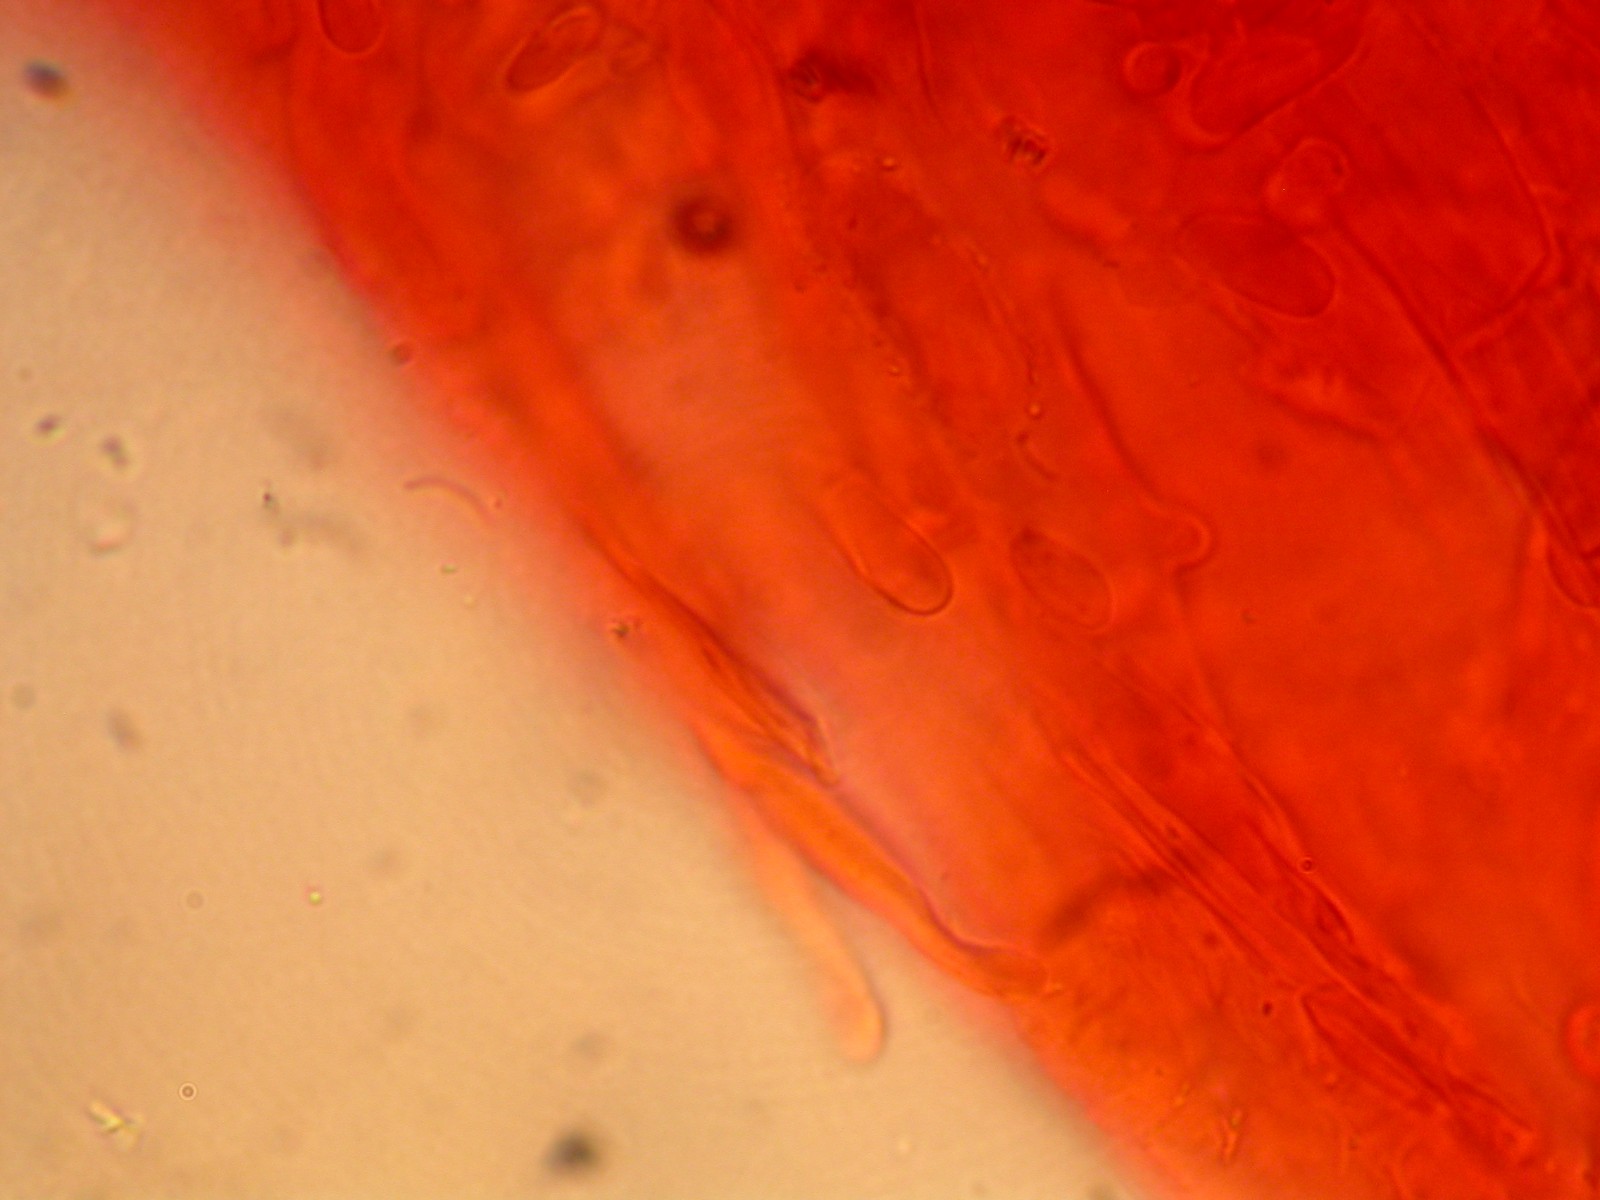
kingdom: Fungi
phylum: Basidiomycota
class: Agaricomycetes
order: Agaricales
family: Hygrophoraceae
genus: Hygrocybe
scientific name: Hygrocybe constrictospora
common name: koralrød vokshat
